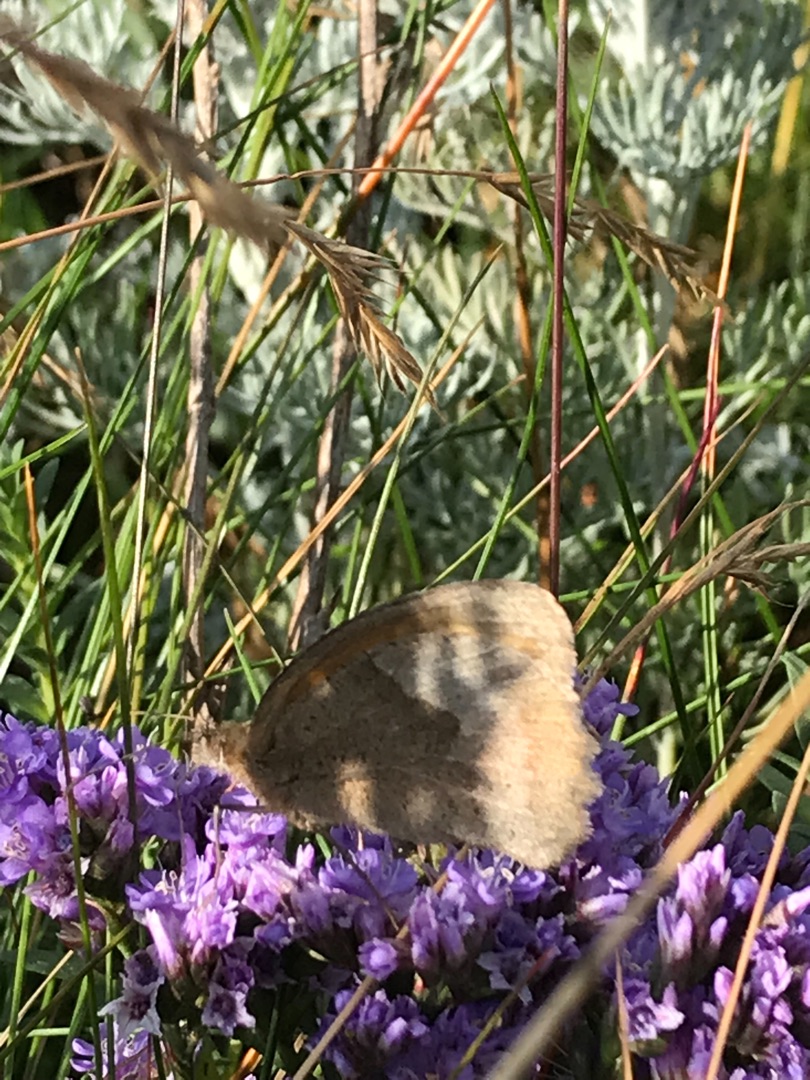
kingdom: Animalia
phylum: Arthropoda
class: Insecta
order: Lepidoptera
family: Nymphalidae
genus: Maniola
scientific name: Maniola jurtina
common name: Græsrandøje
